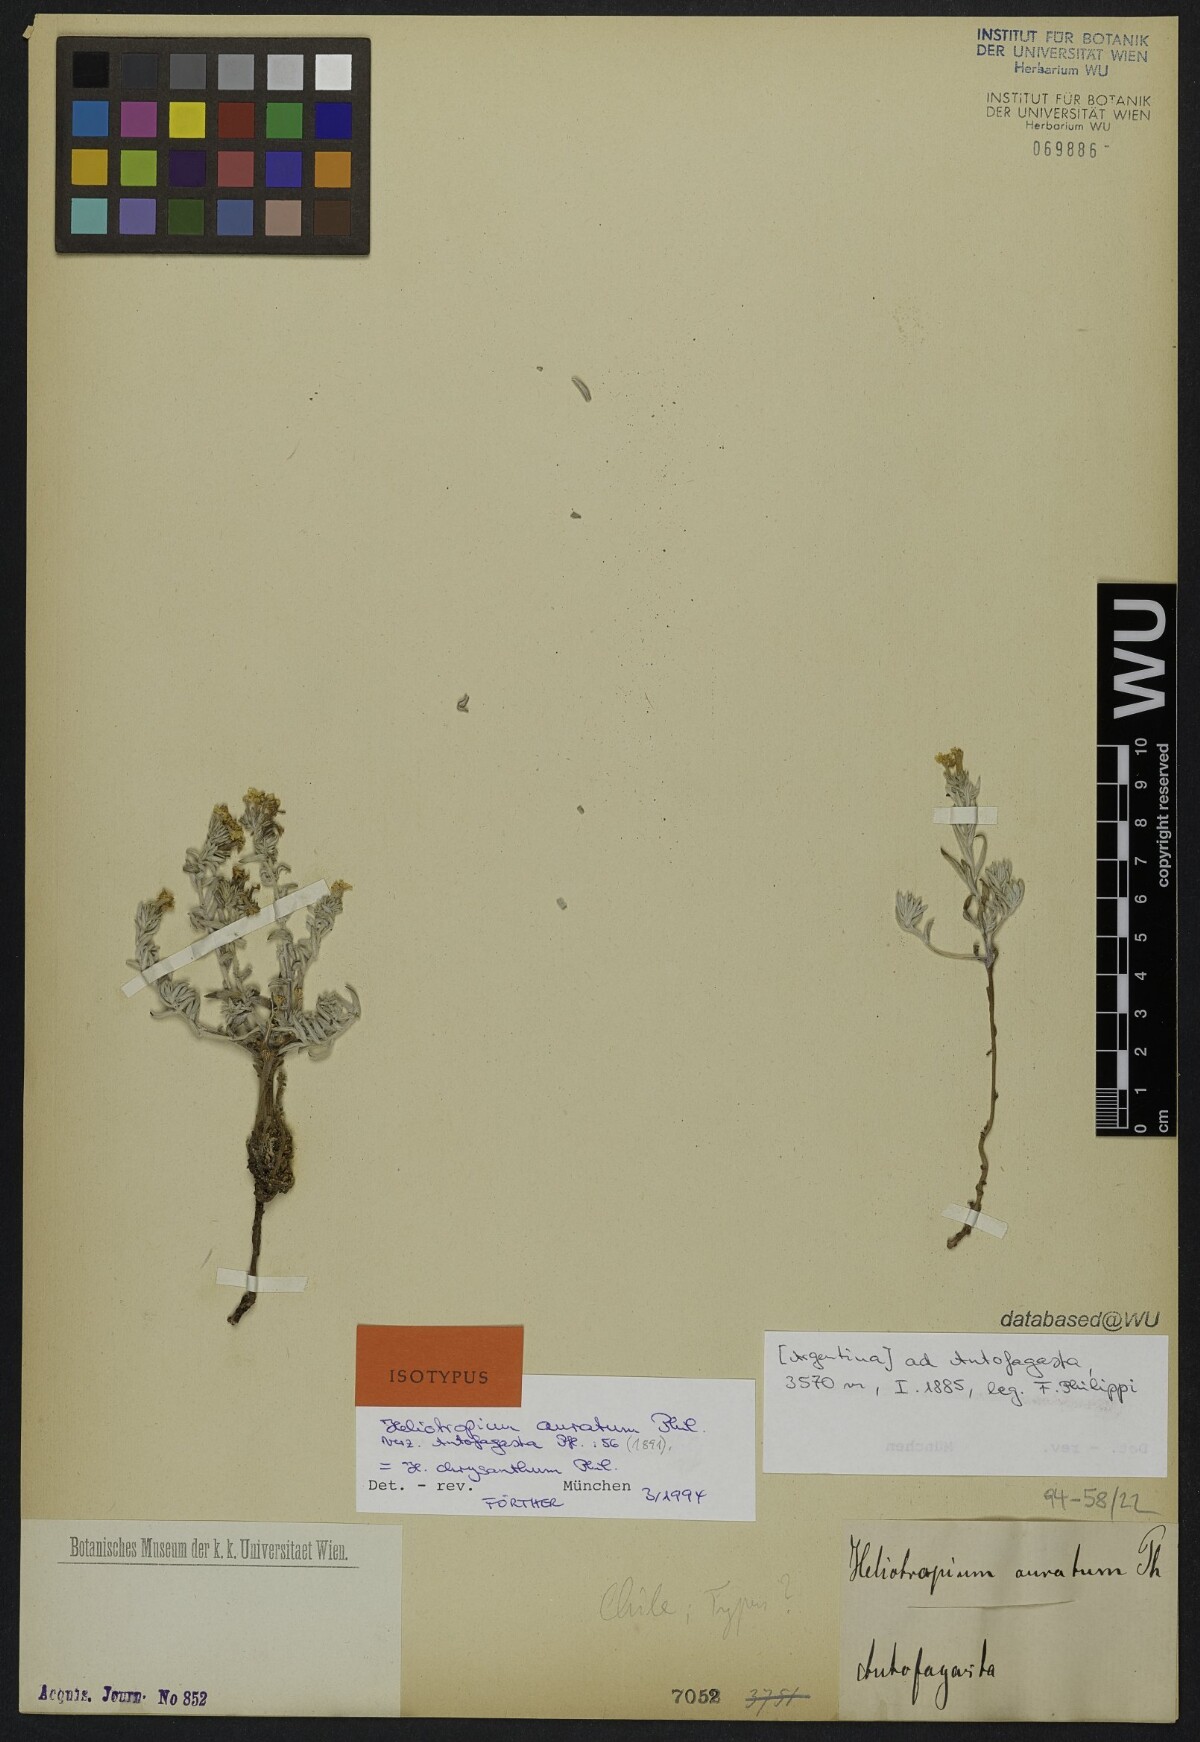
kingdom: Plantae
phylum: Tracheophyta
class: Magnoliopsida
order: Boraginales
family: Heliotropiaceae
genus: Euploca
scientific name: Euploca aurata
